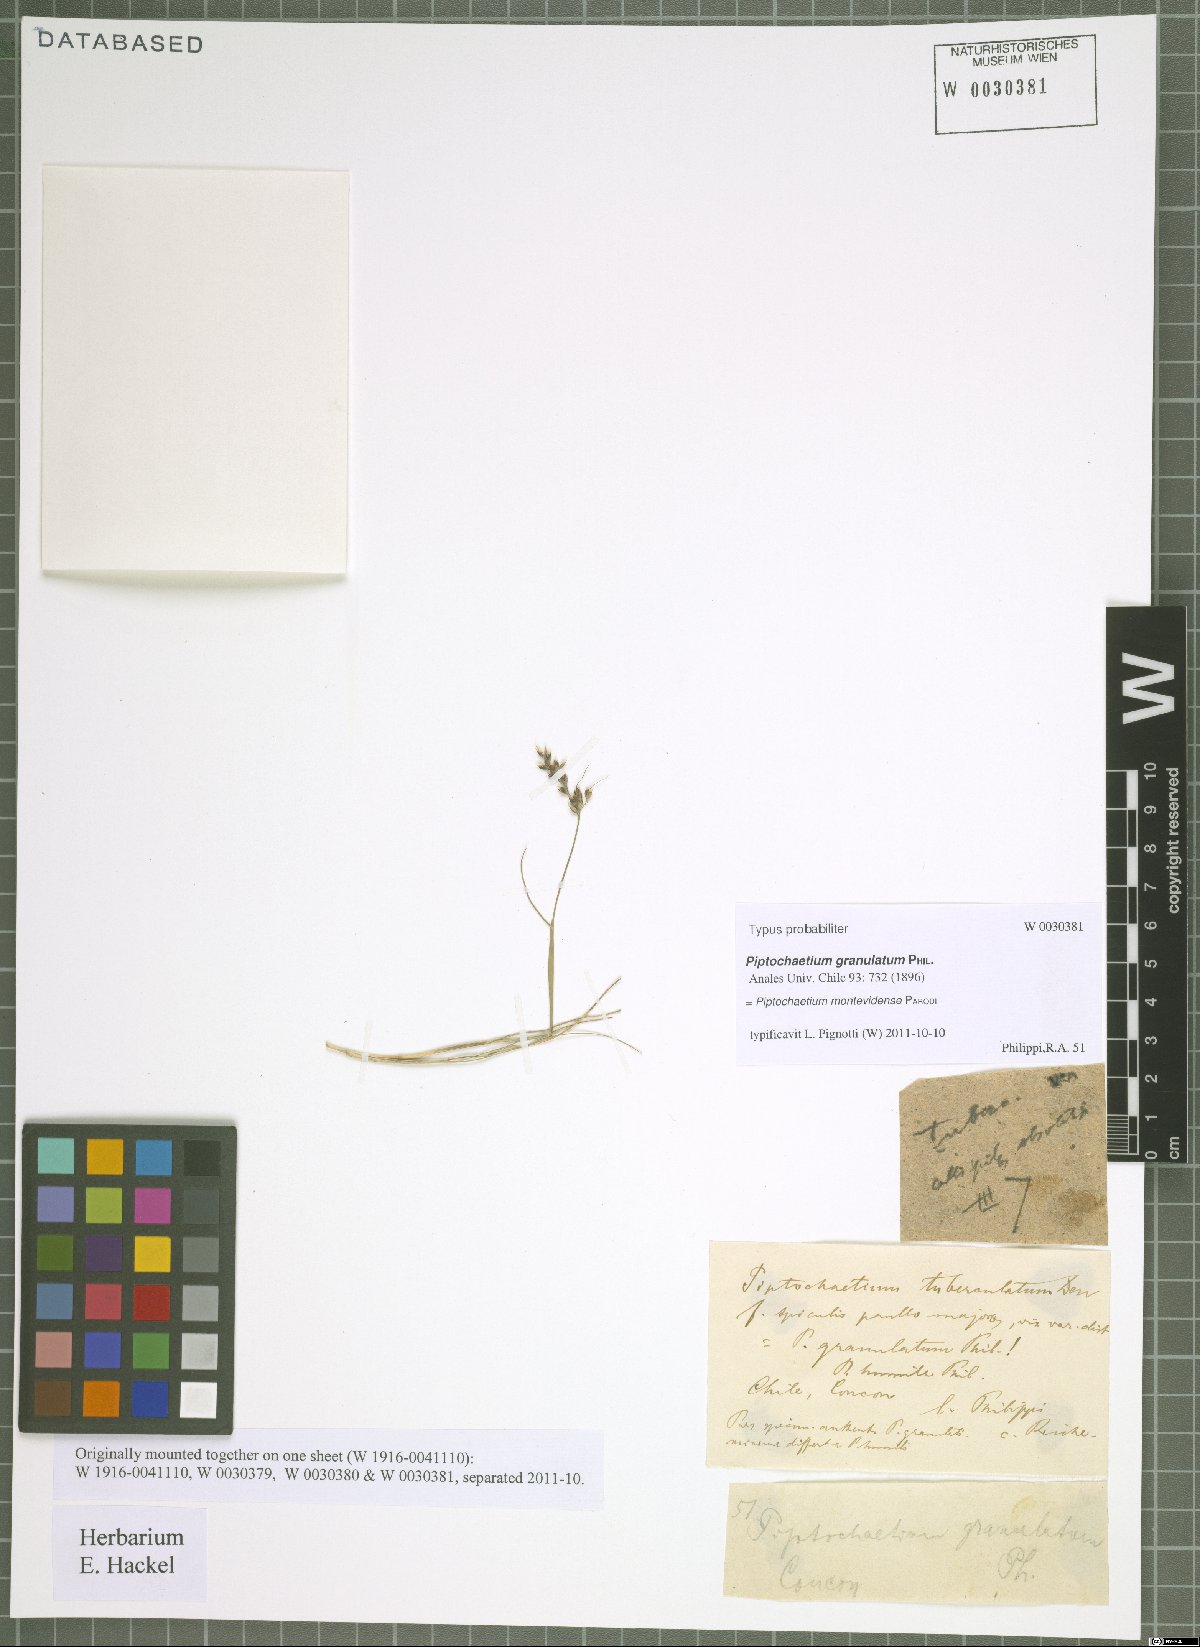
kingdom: Plantae
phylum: Tracheophyta
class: Liliopsida
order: Poales
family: Poaceae
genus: Piptochaetium
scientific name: Piptochaetium montevidense
